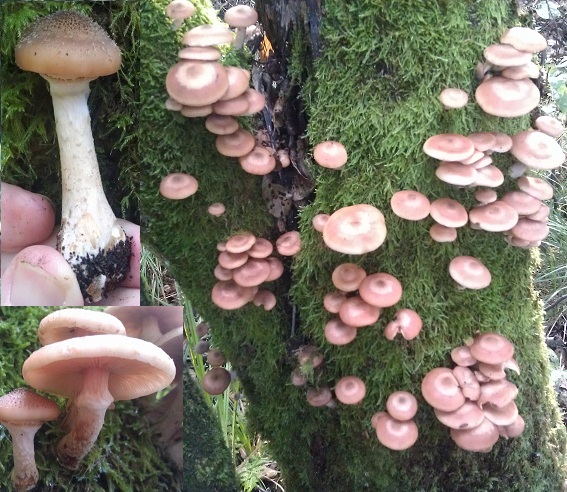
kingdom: Fungi
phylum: Basidiomycota
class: Agaricomycetes
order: Agaricales
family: Physalacriaceae
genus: Armillaria
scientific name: Armillaria lutea
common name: køllestokket honningsvamp
